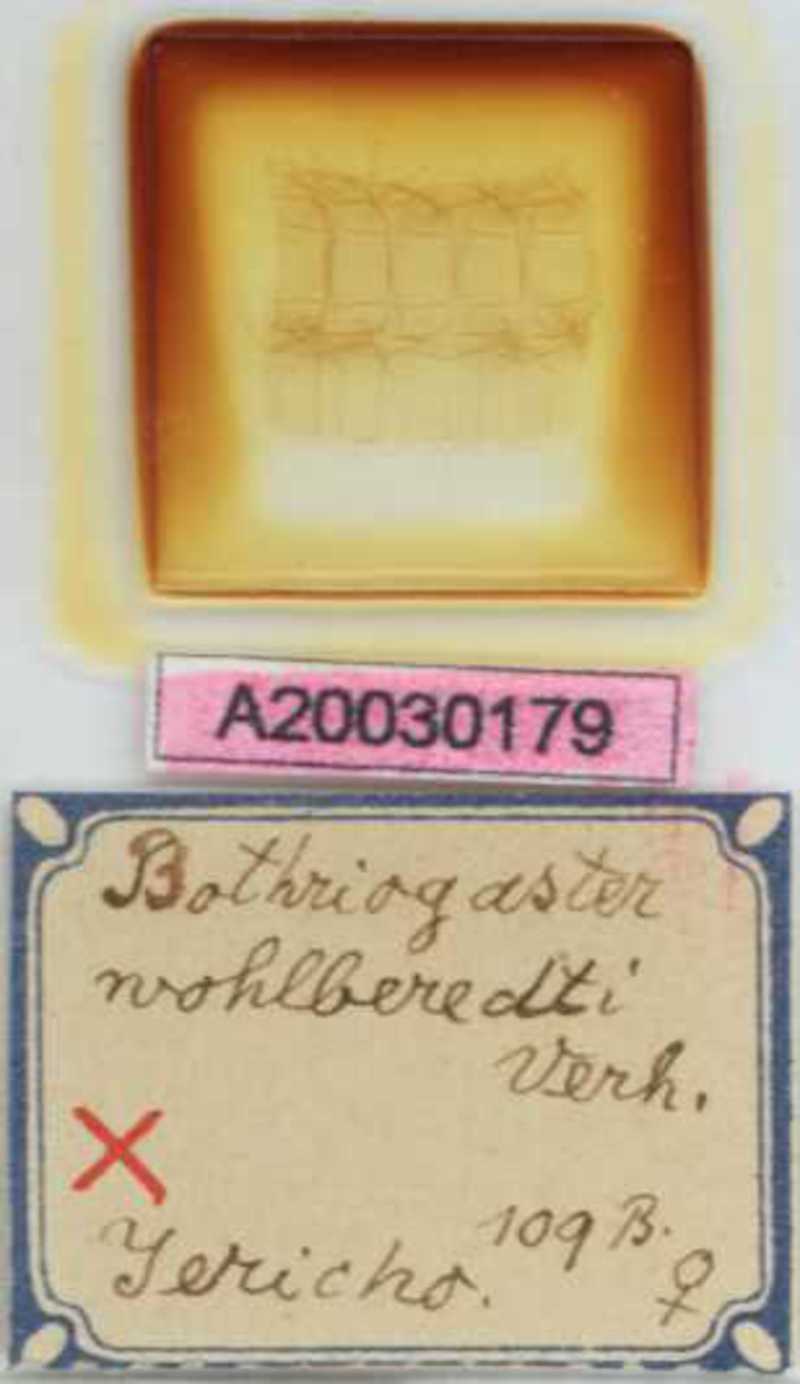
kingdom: Animalia
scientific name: Animalia
